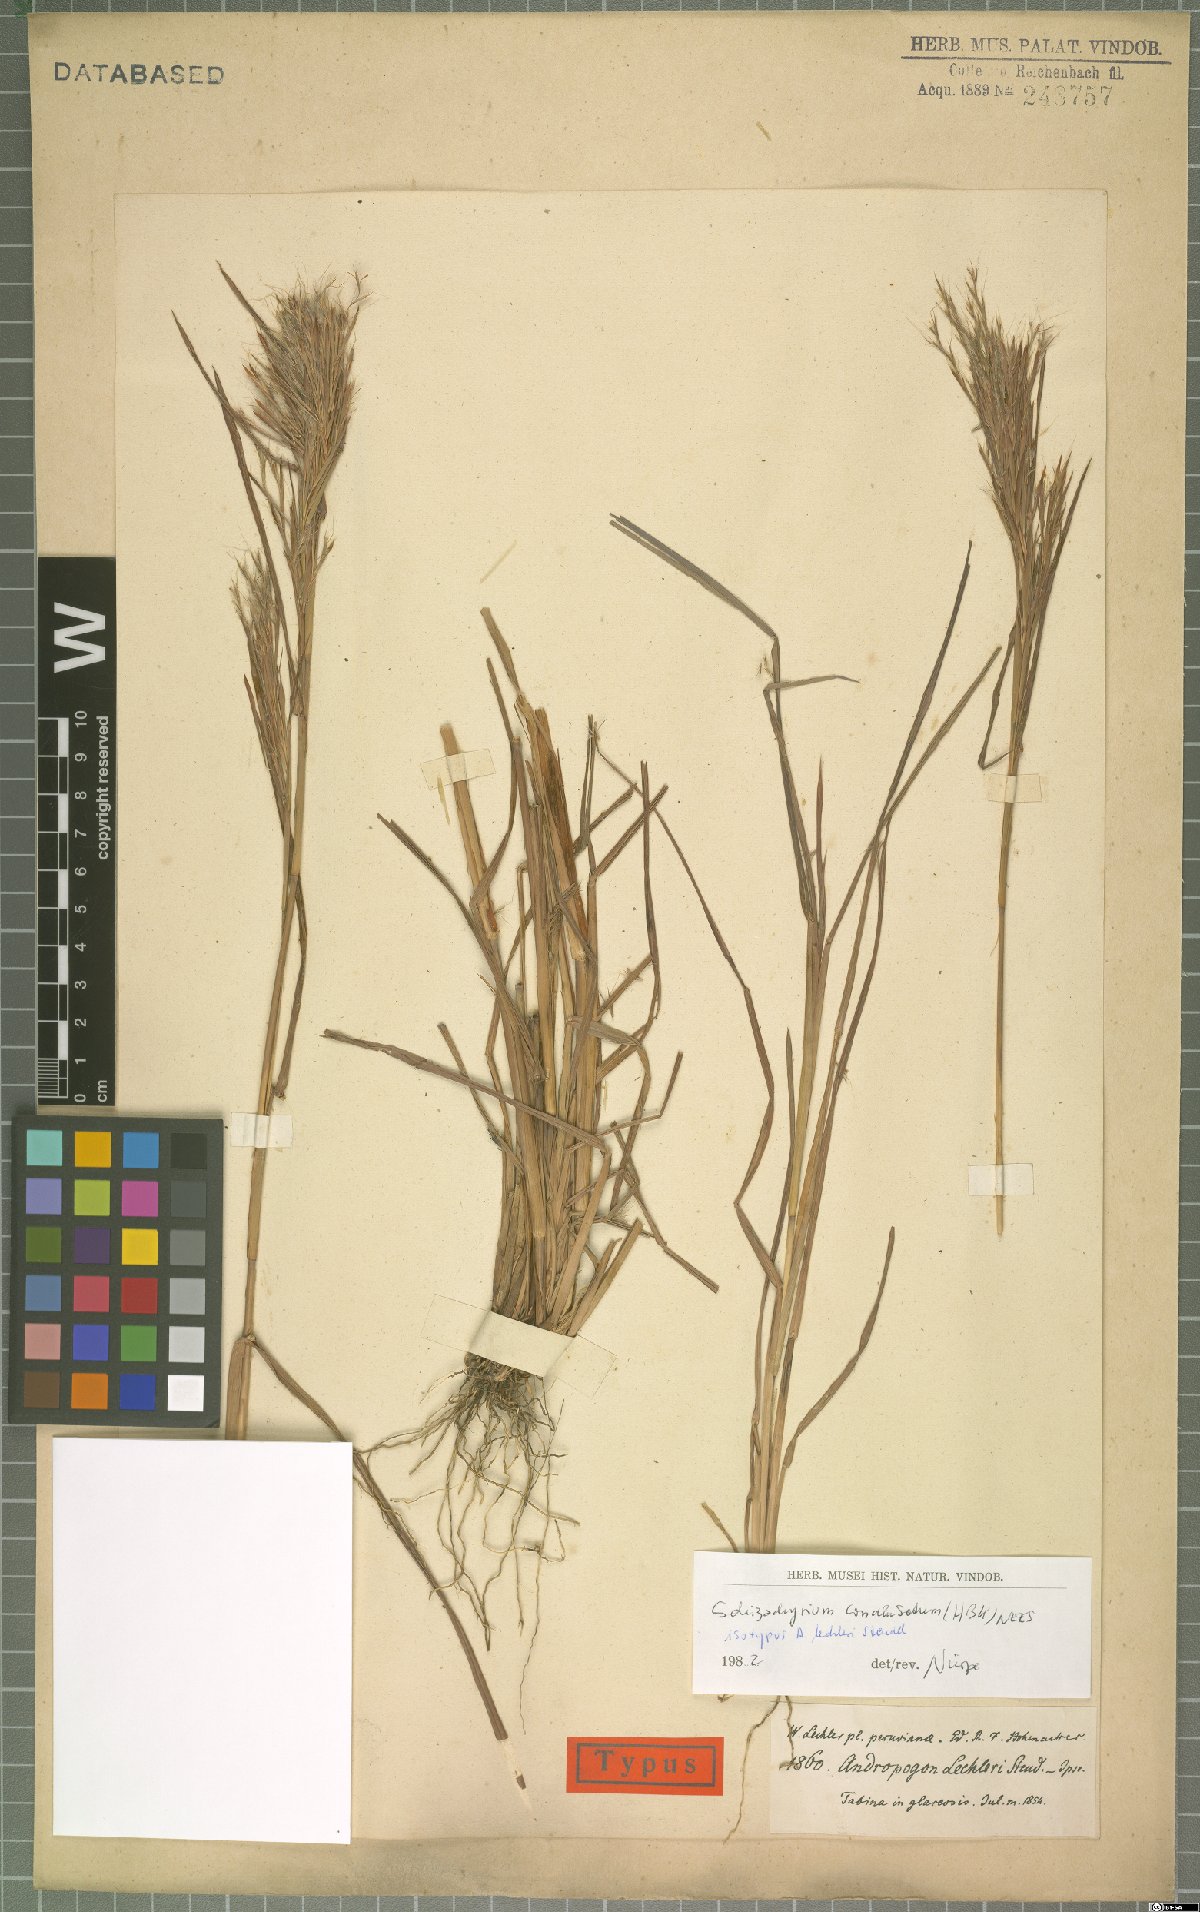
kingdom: Plantae
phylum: Tracheophyta
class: Liliopsida
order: Poales
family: Poaceae
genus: Schizachyrium
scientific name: Schizachyrium condensatum
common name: Bush beardgrass
